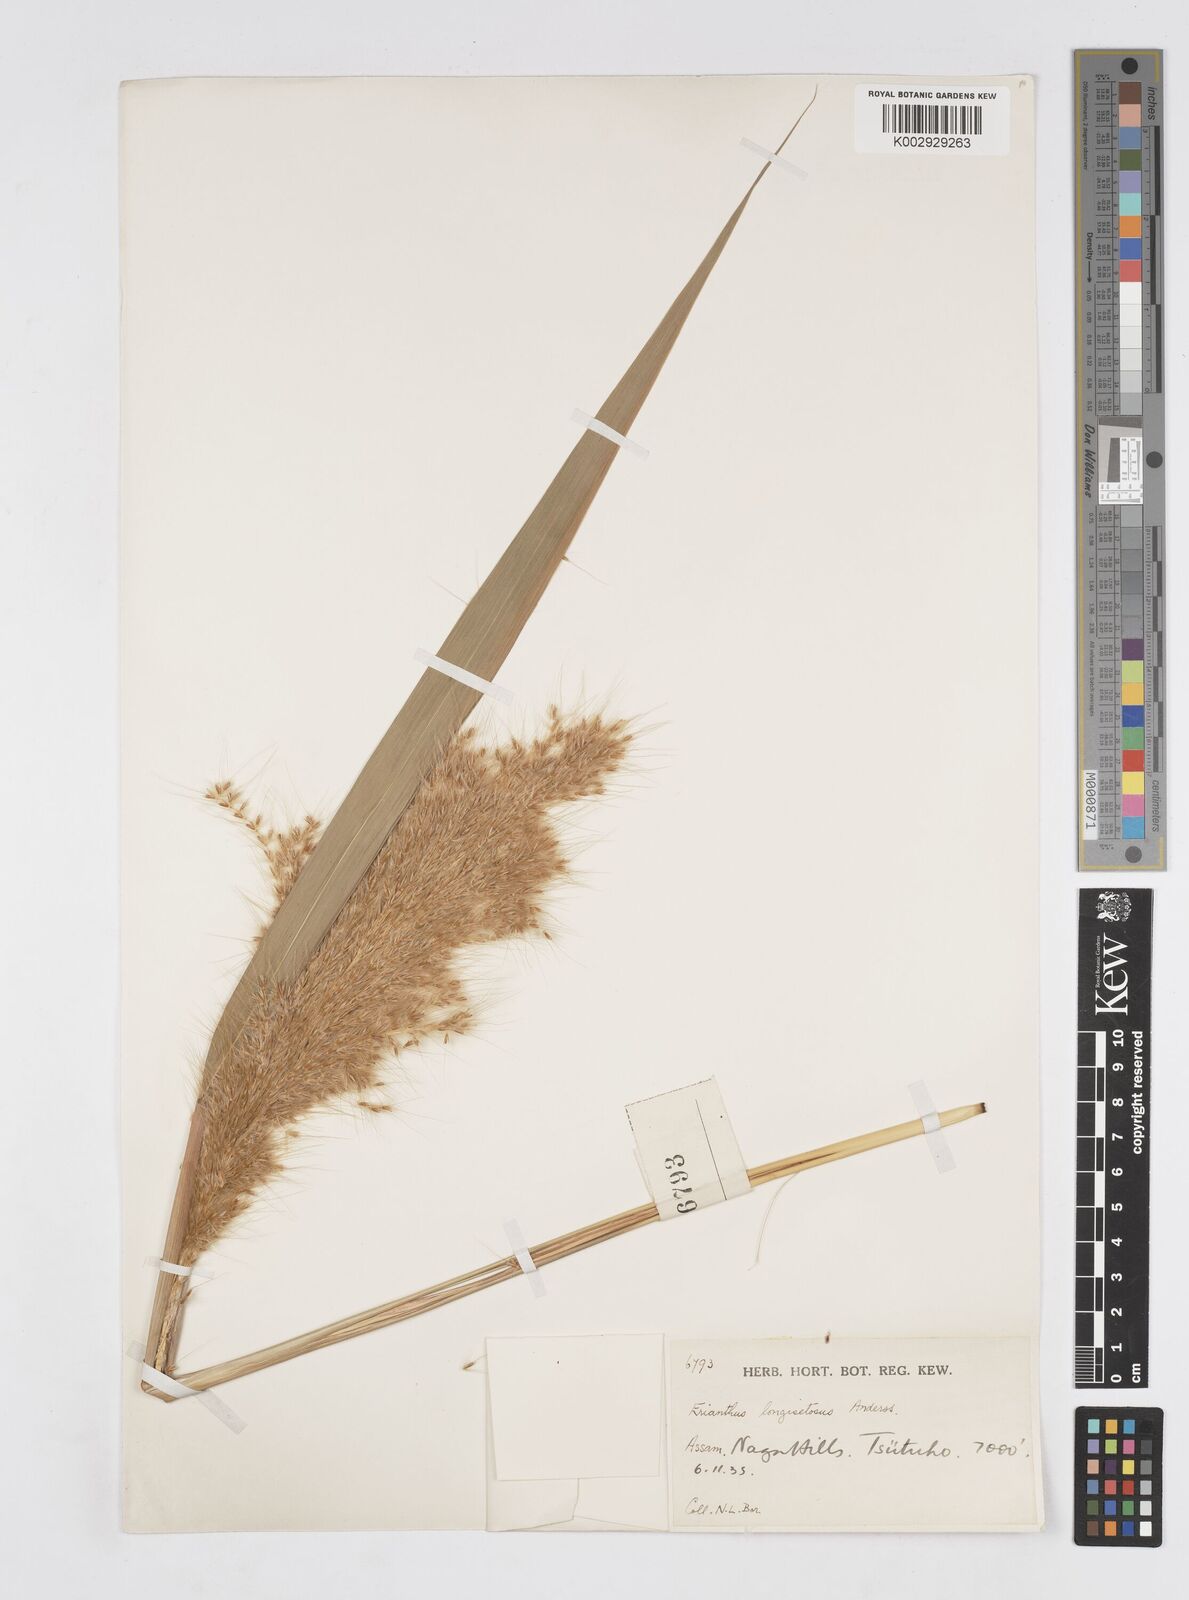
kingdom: Plantae
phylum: Tracheophyta
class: Liliopsida
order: Poales
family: Poaceae
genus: Saccharum
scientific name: Saccharum longesetosum
